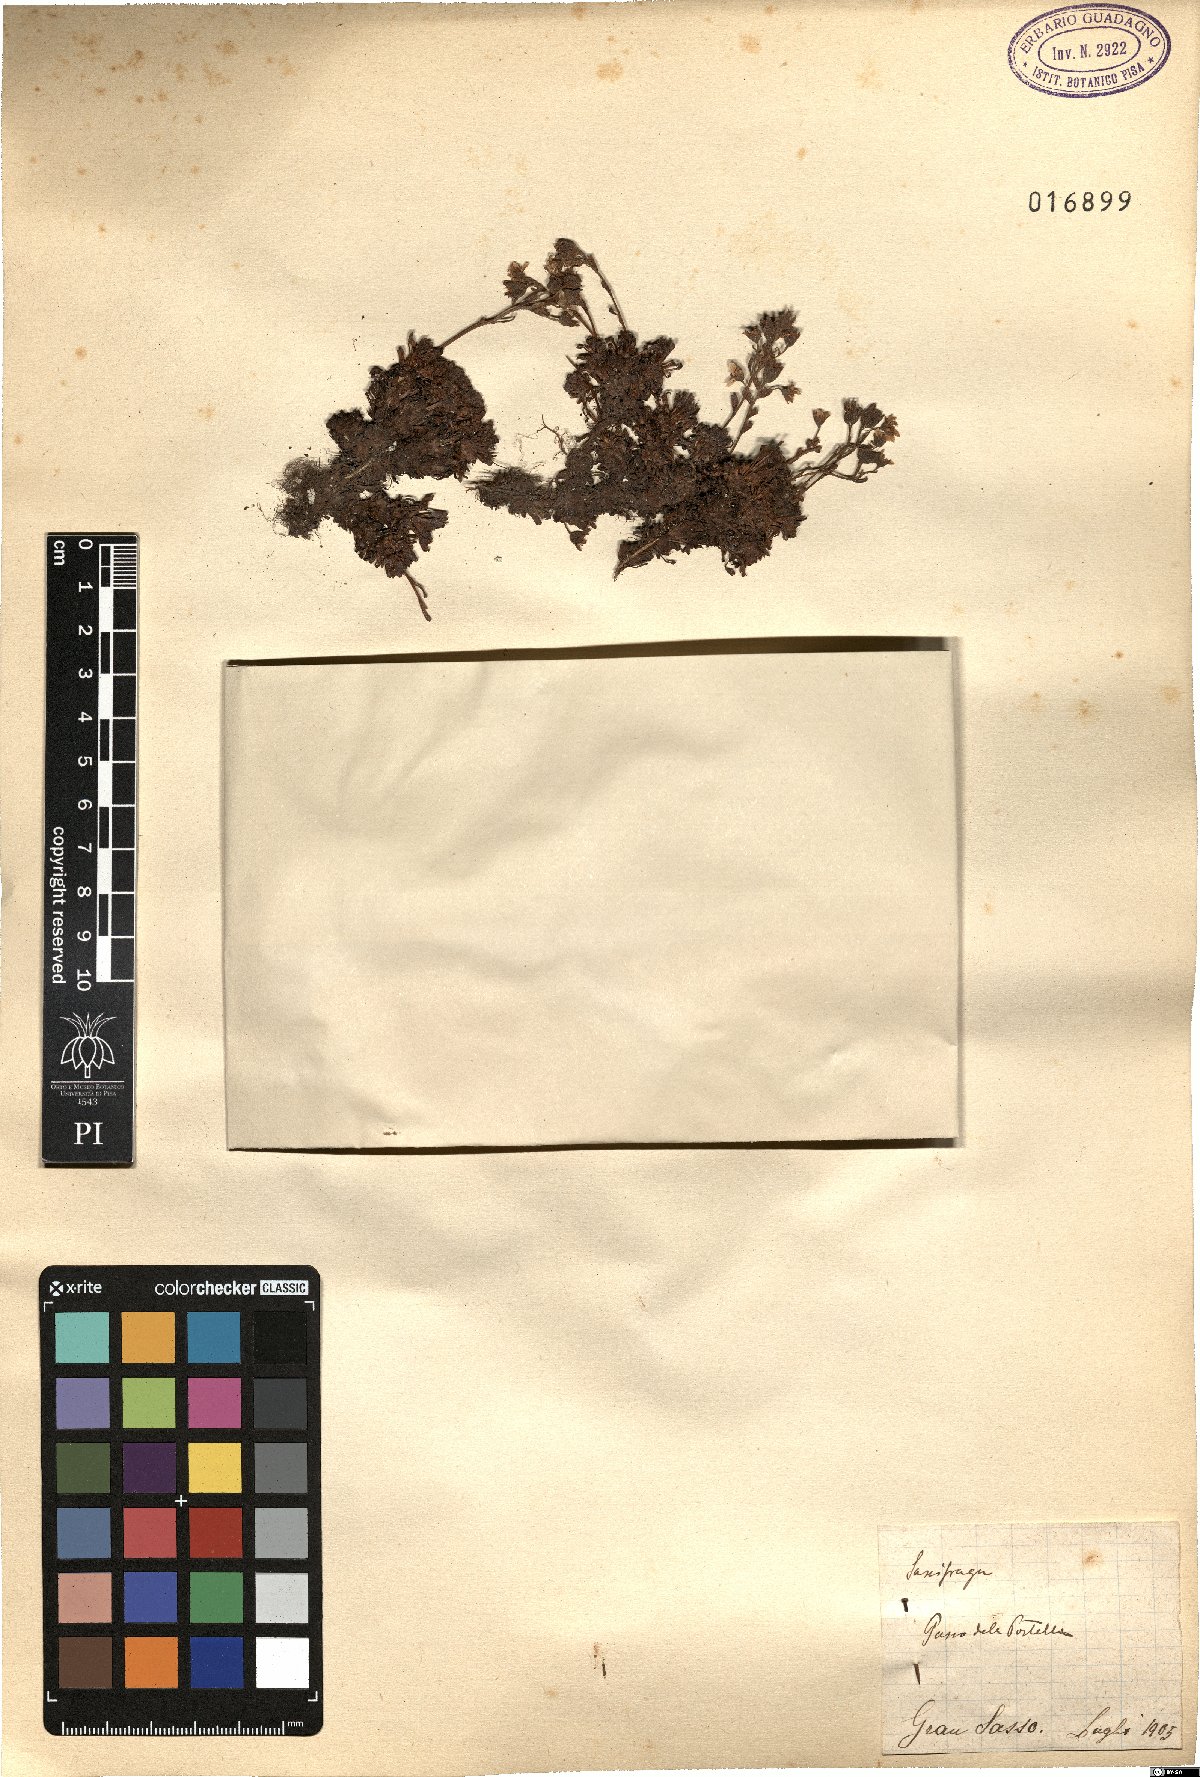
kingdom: Plantae
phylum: Tracheophyta
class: Magnoliopsida
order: Saxifragales
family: Saxifragaceae
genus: Saxifraga
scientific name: Saxifraga
